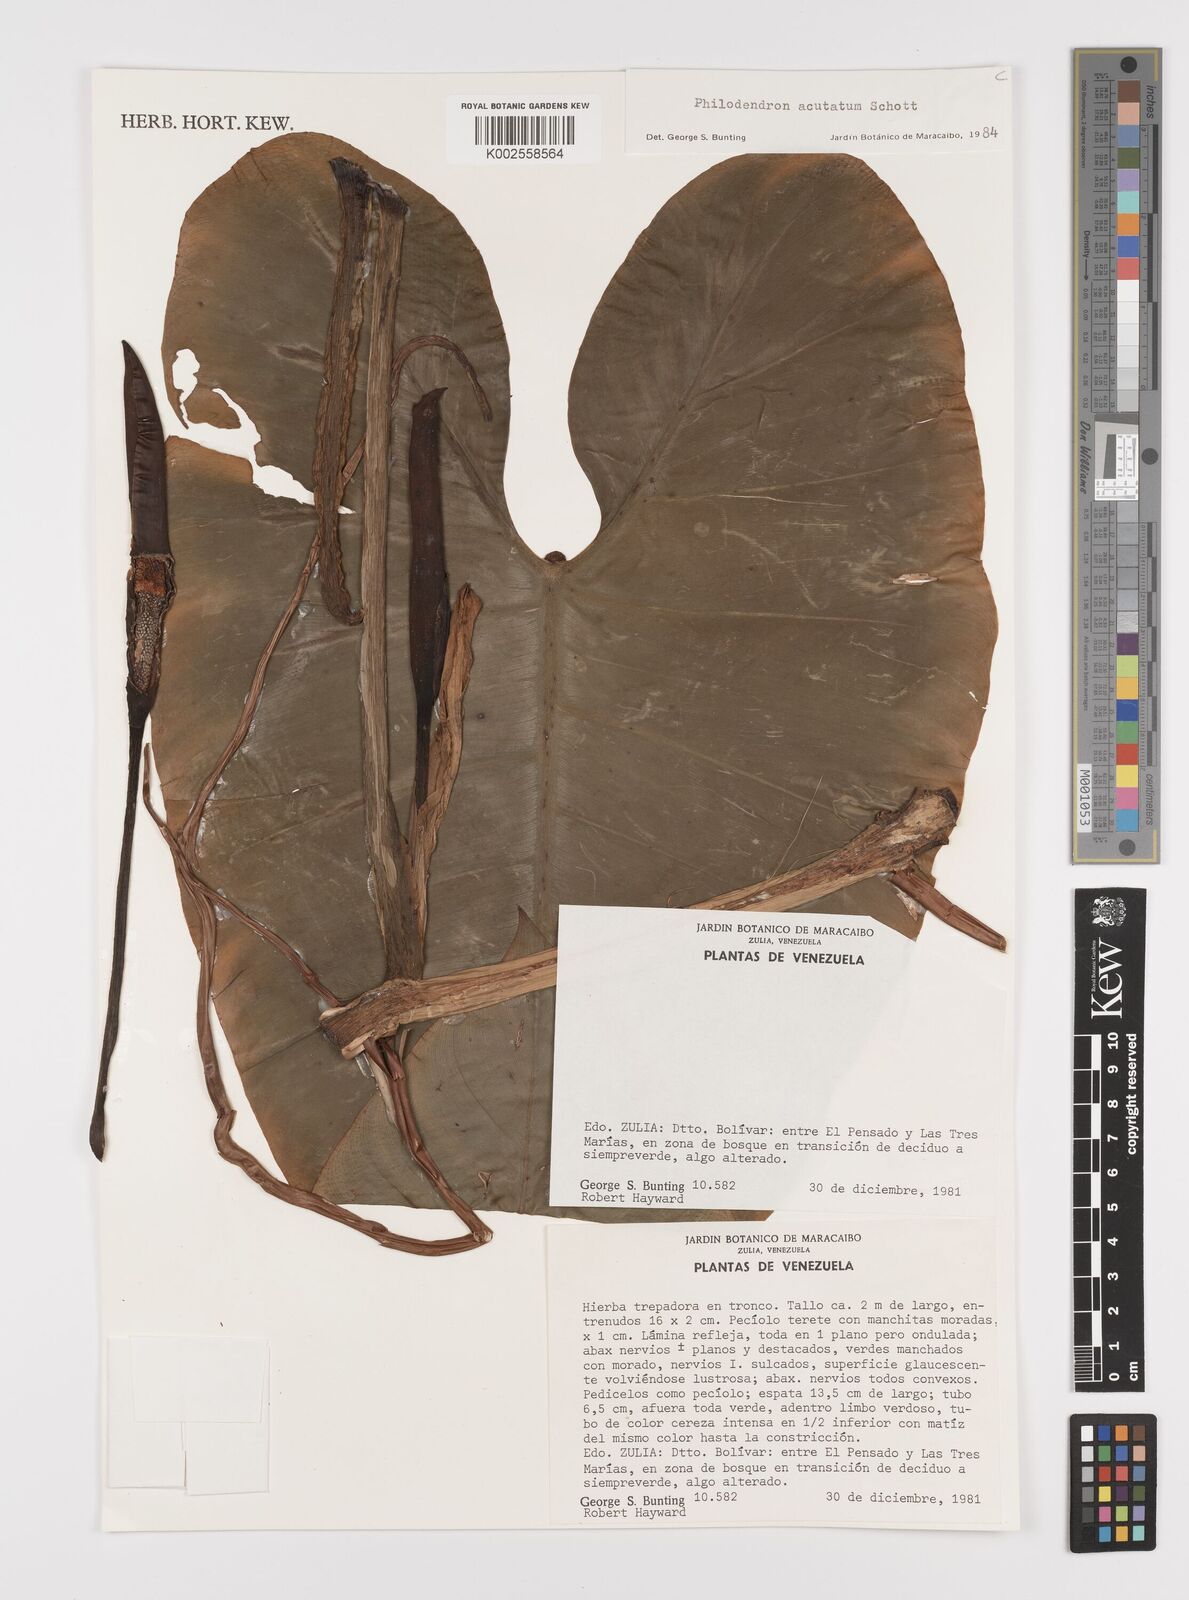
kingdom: Plantae
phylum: Tracheophyta
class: Liliopsida
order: Alismatales
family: Araceae
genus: Philodendron
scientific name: Philodendron quinquenervium
